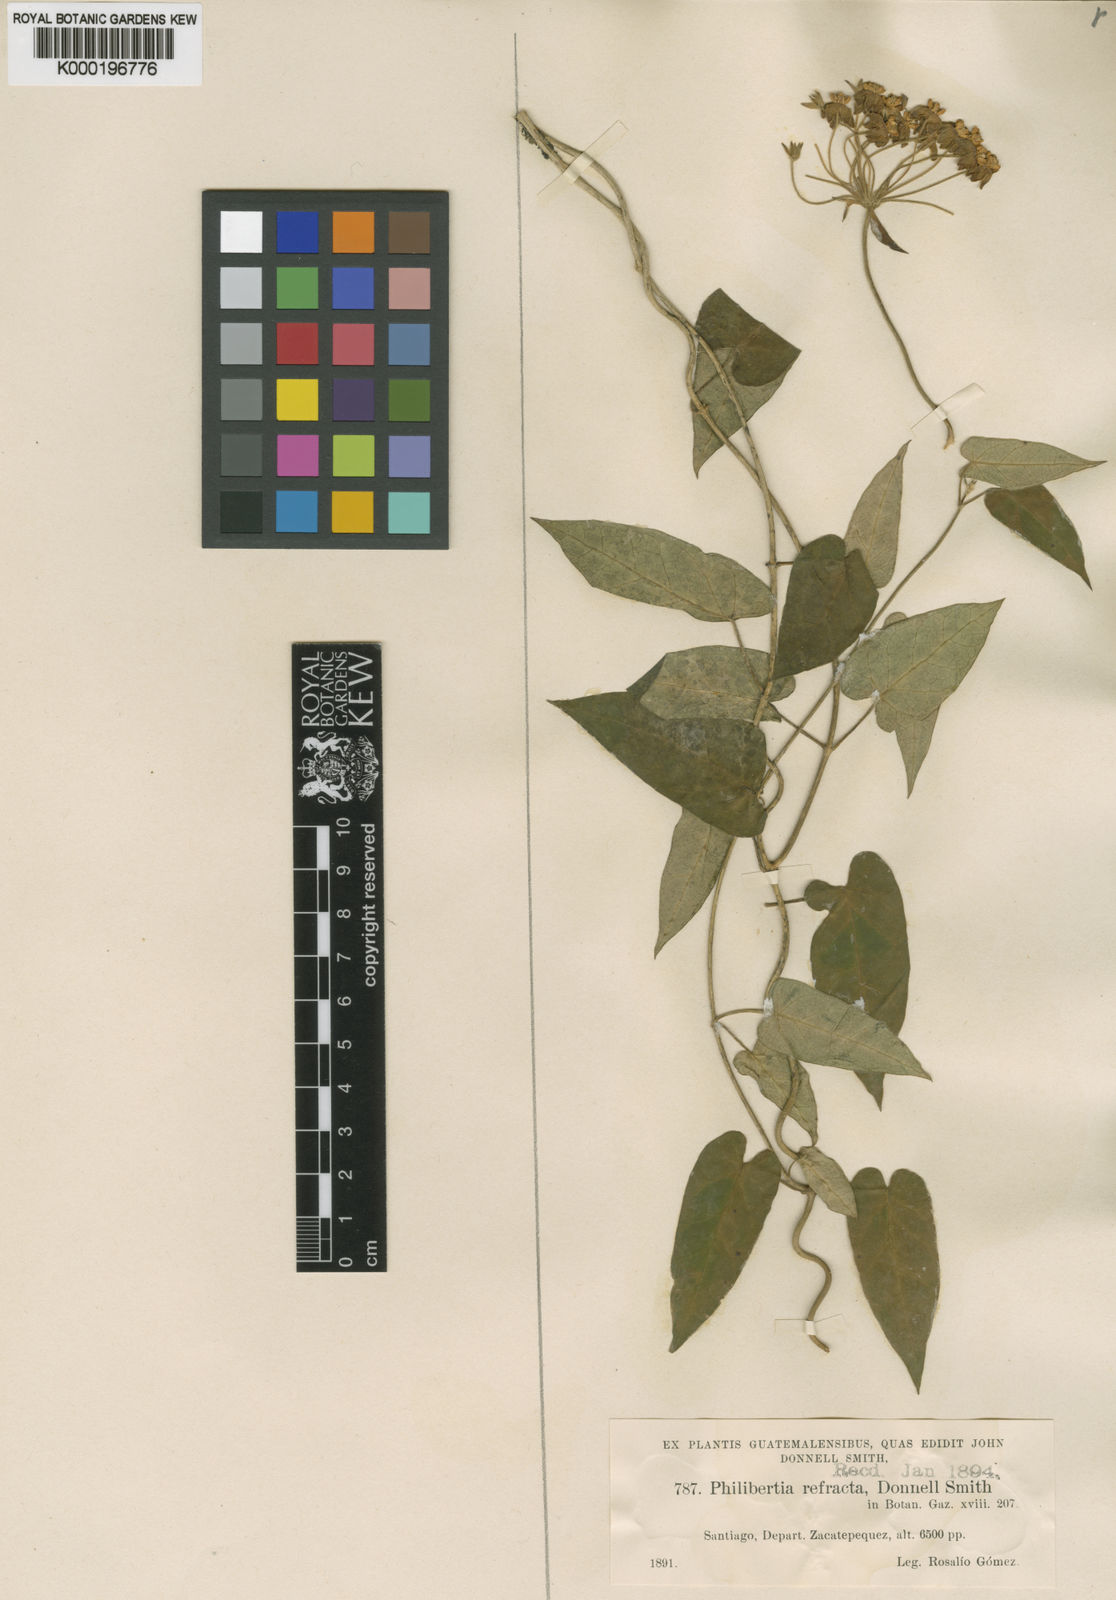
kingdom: Plantae
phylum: Tracheophyta
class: Magnoliopsida
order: Gentianales
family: Apocynaceae
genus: Funastrum
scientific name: Funastrum bilobum
